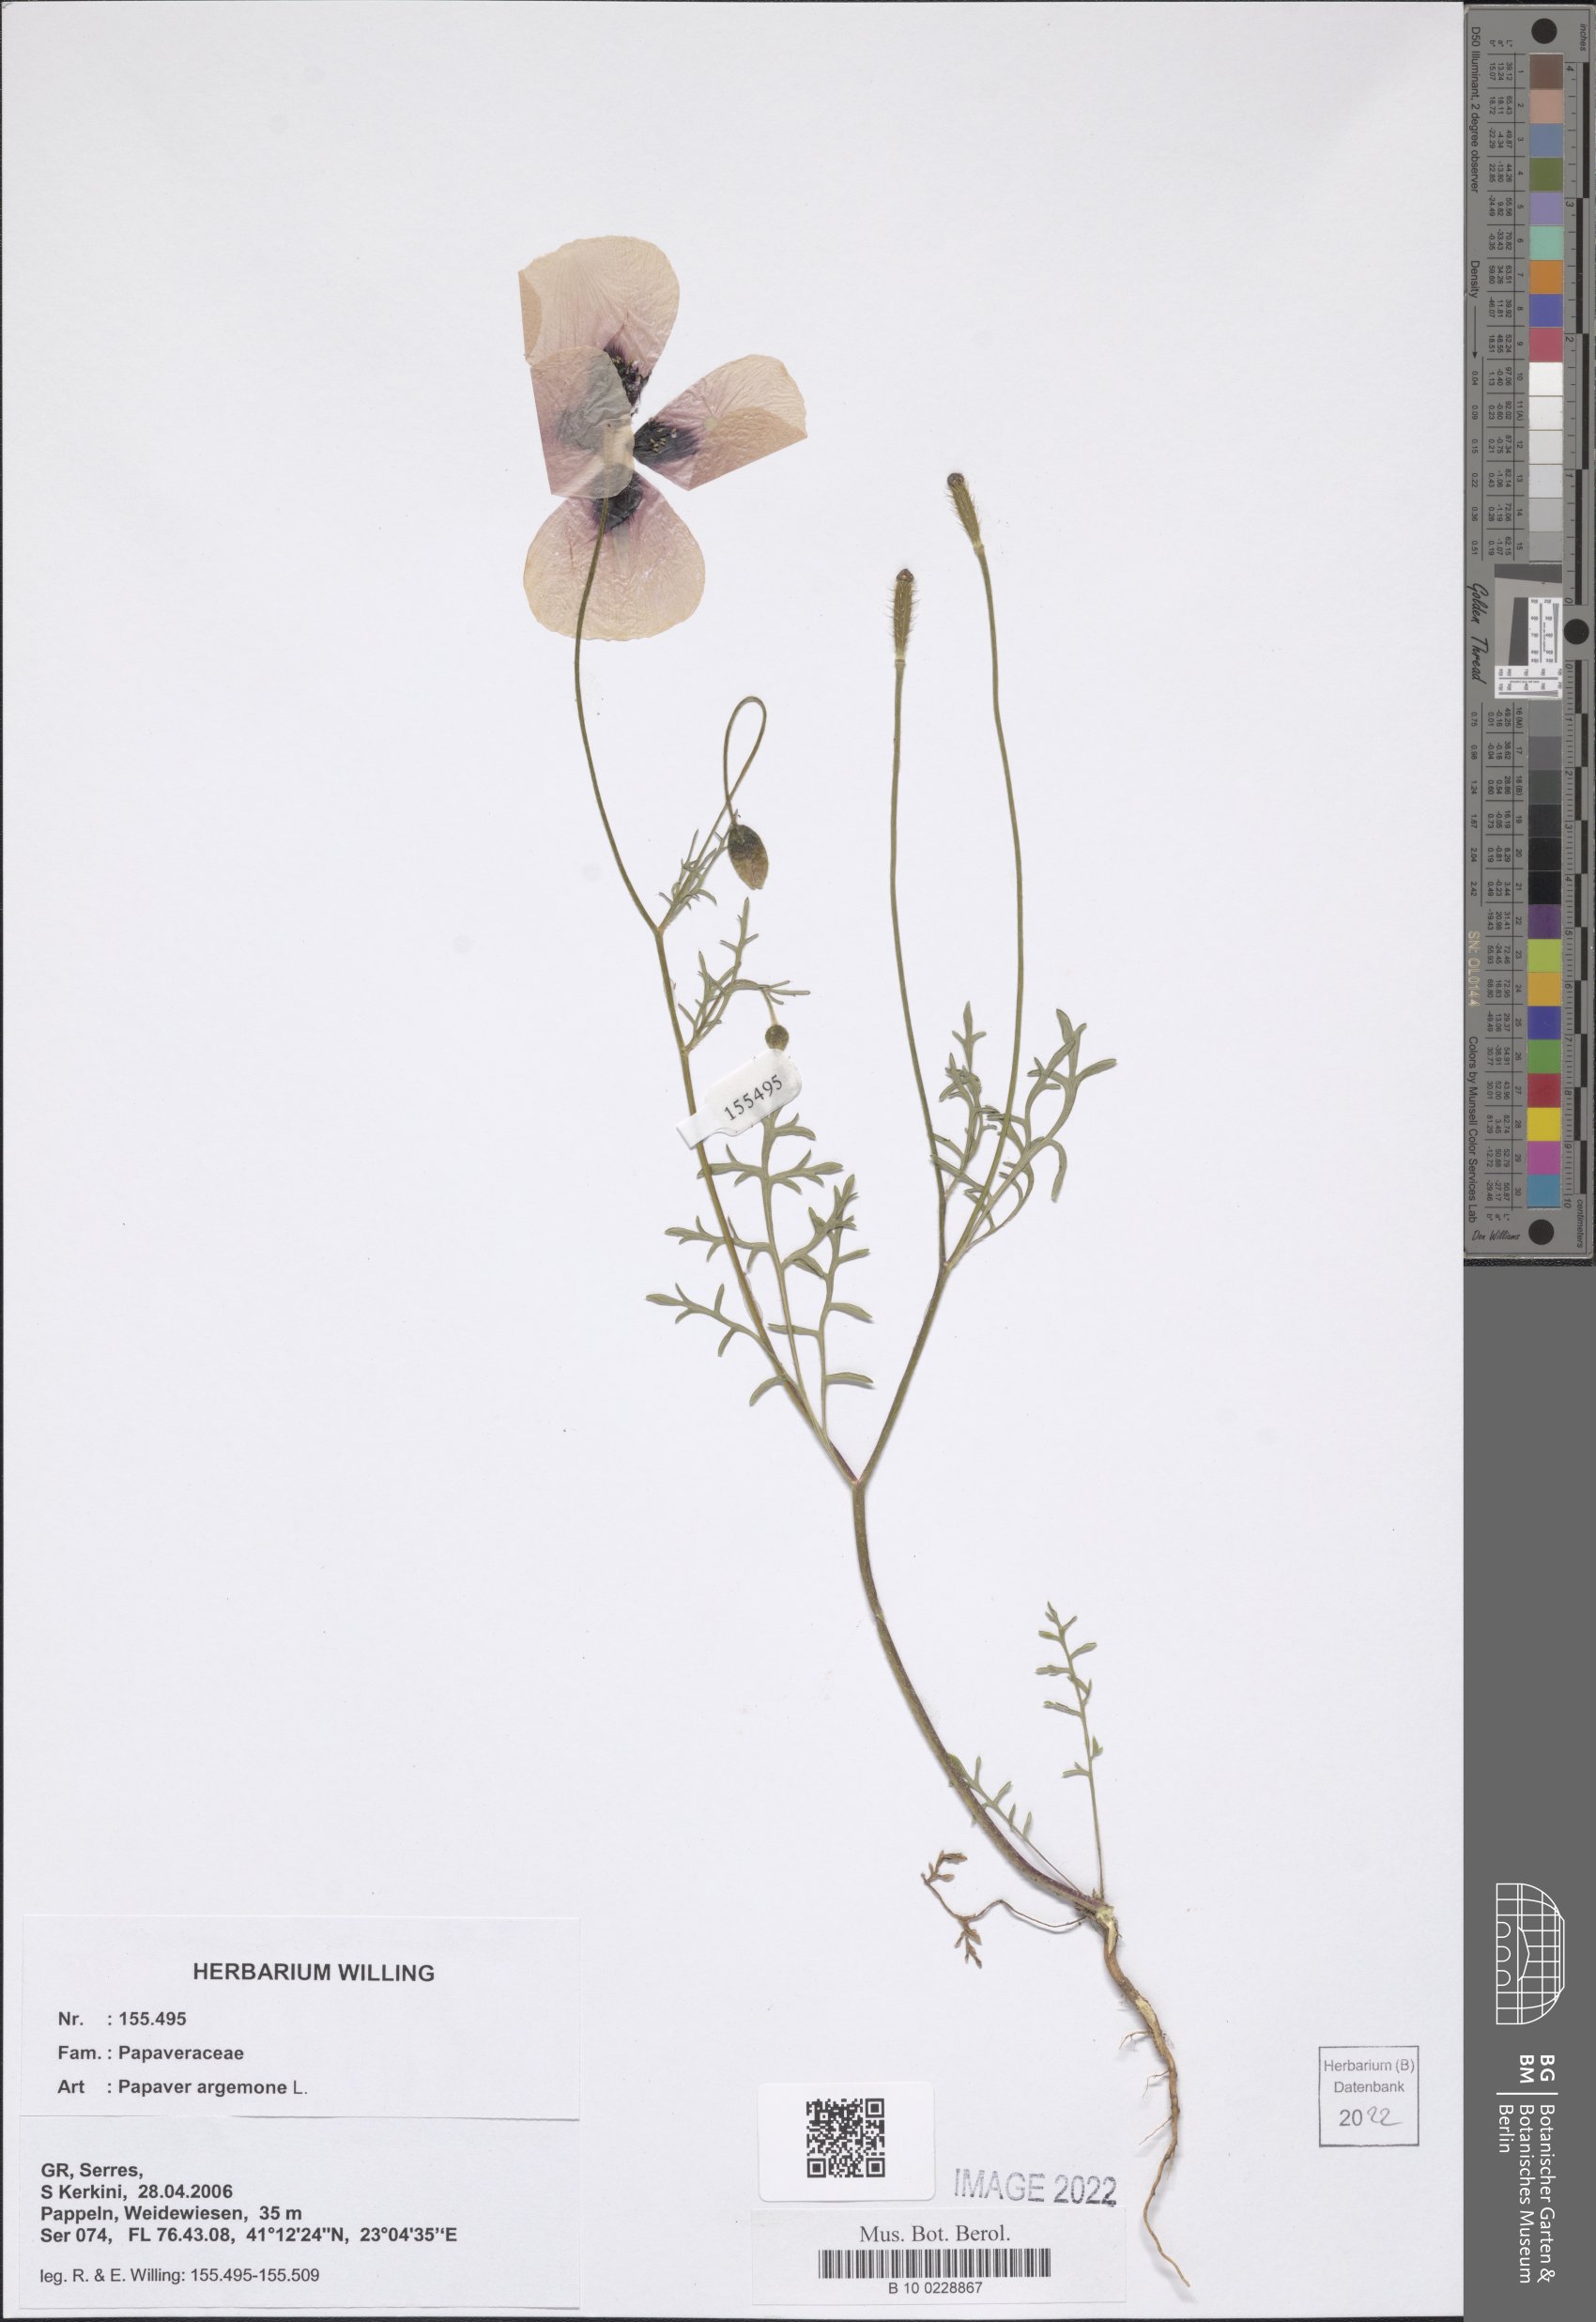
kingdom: Plantae
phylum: Tracheophyta
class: Magnoliopsida
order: Ranunculales
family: Papaveraceae
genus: Roemeria
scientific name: Roemeria argemone
